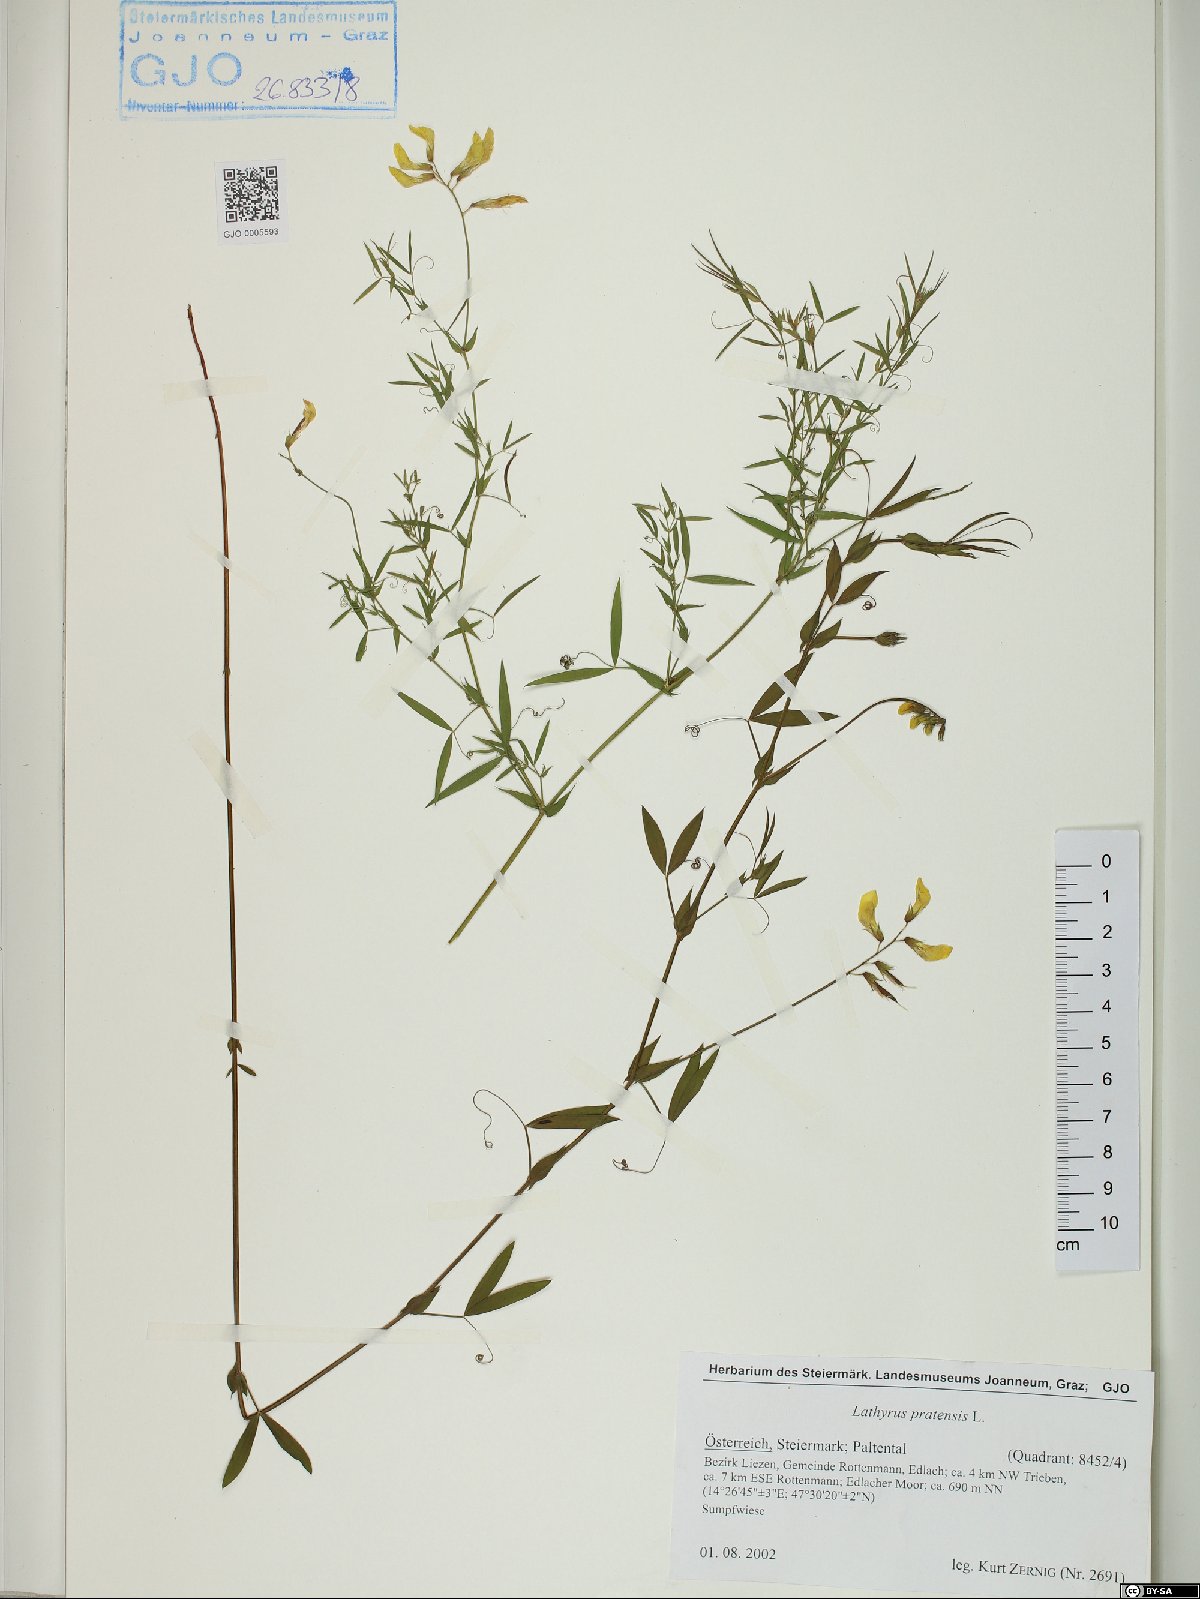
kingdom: Plantae
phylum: Tracheophyta
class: Magnoliopsida
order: Fabales
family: Fabaceae
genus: Lathyrus
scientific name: Lathyrus pratensis
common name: Meadow vetchling
